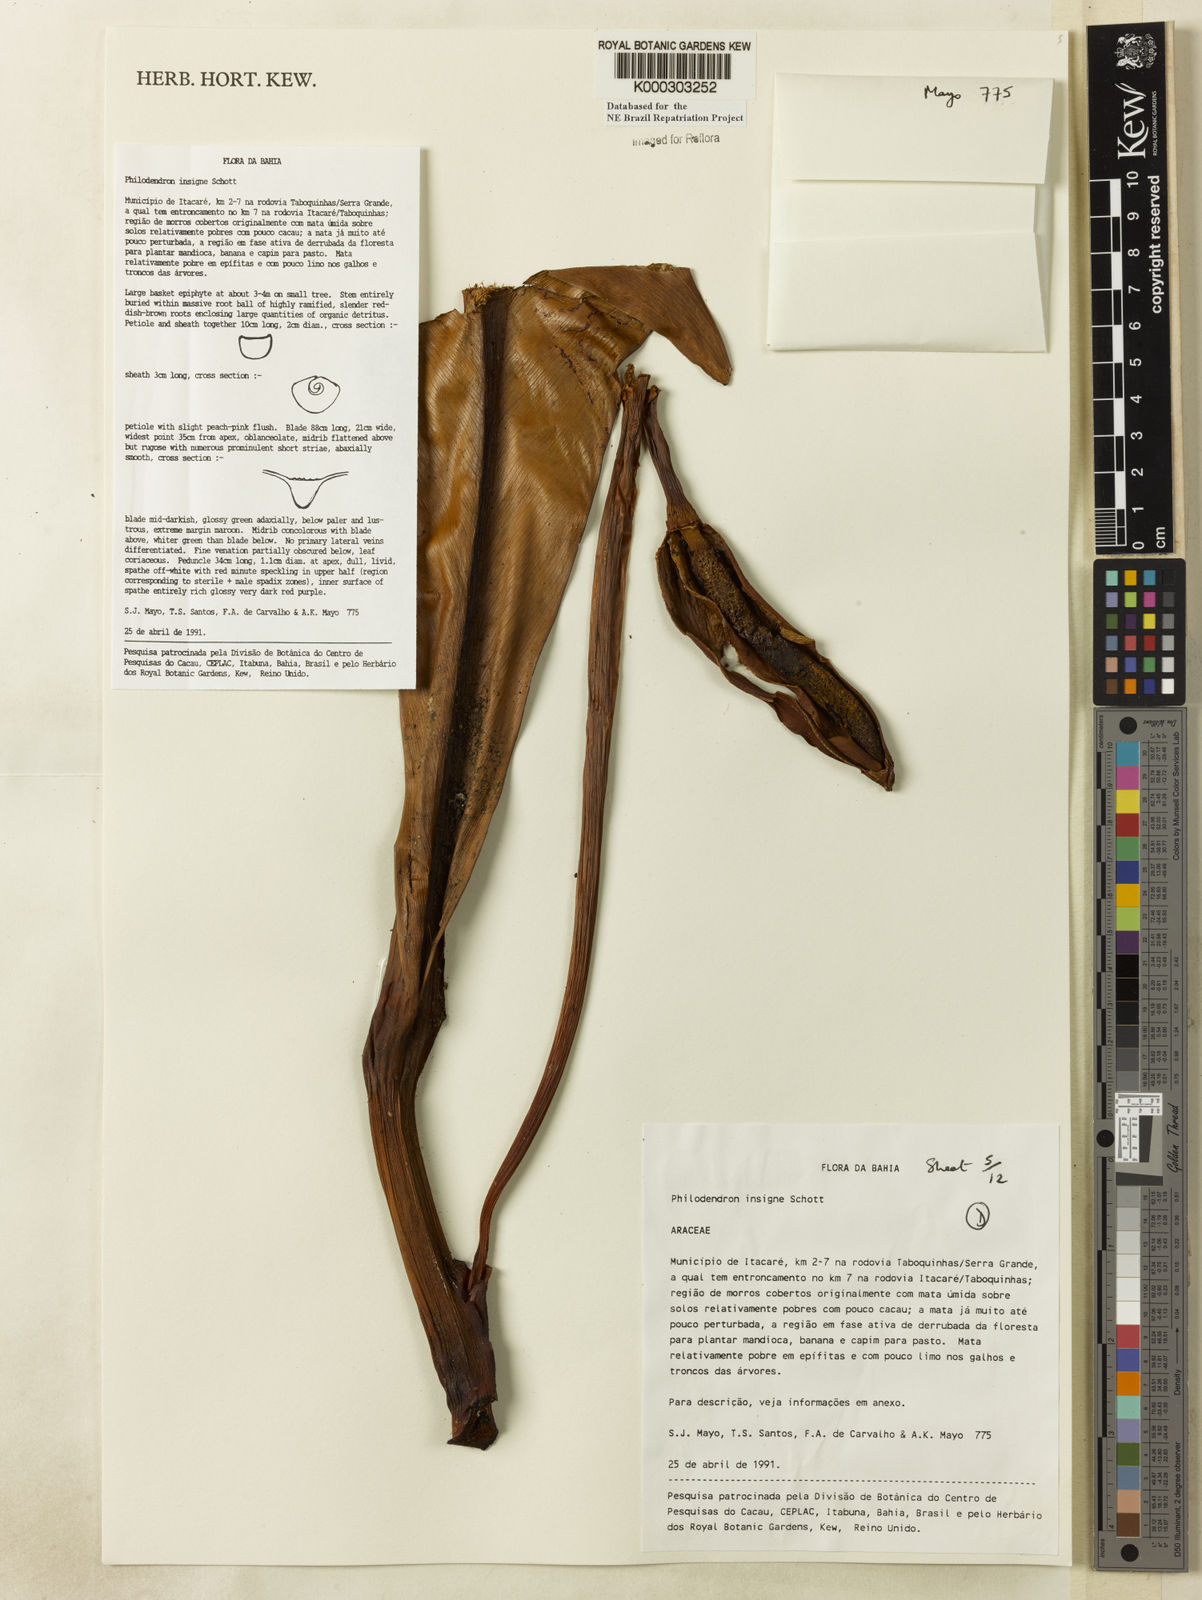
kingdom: Plantae
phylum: Tracheophyta
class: Liliopsida
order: Alismatales
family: Araceae
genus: Philodendron
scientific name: Philodendron insigne
